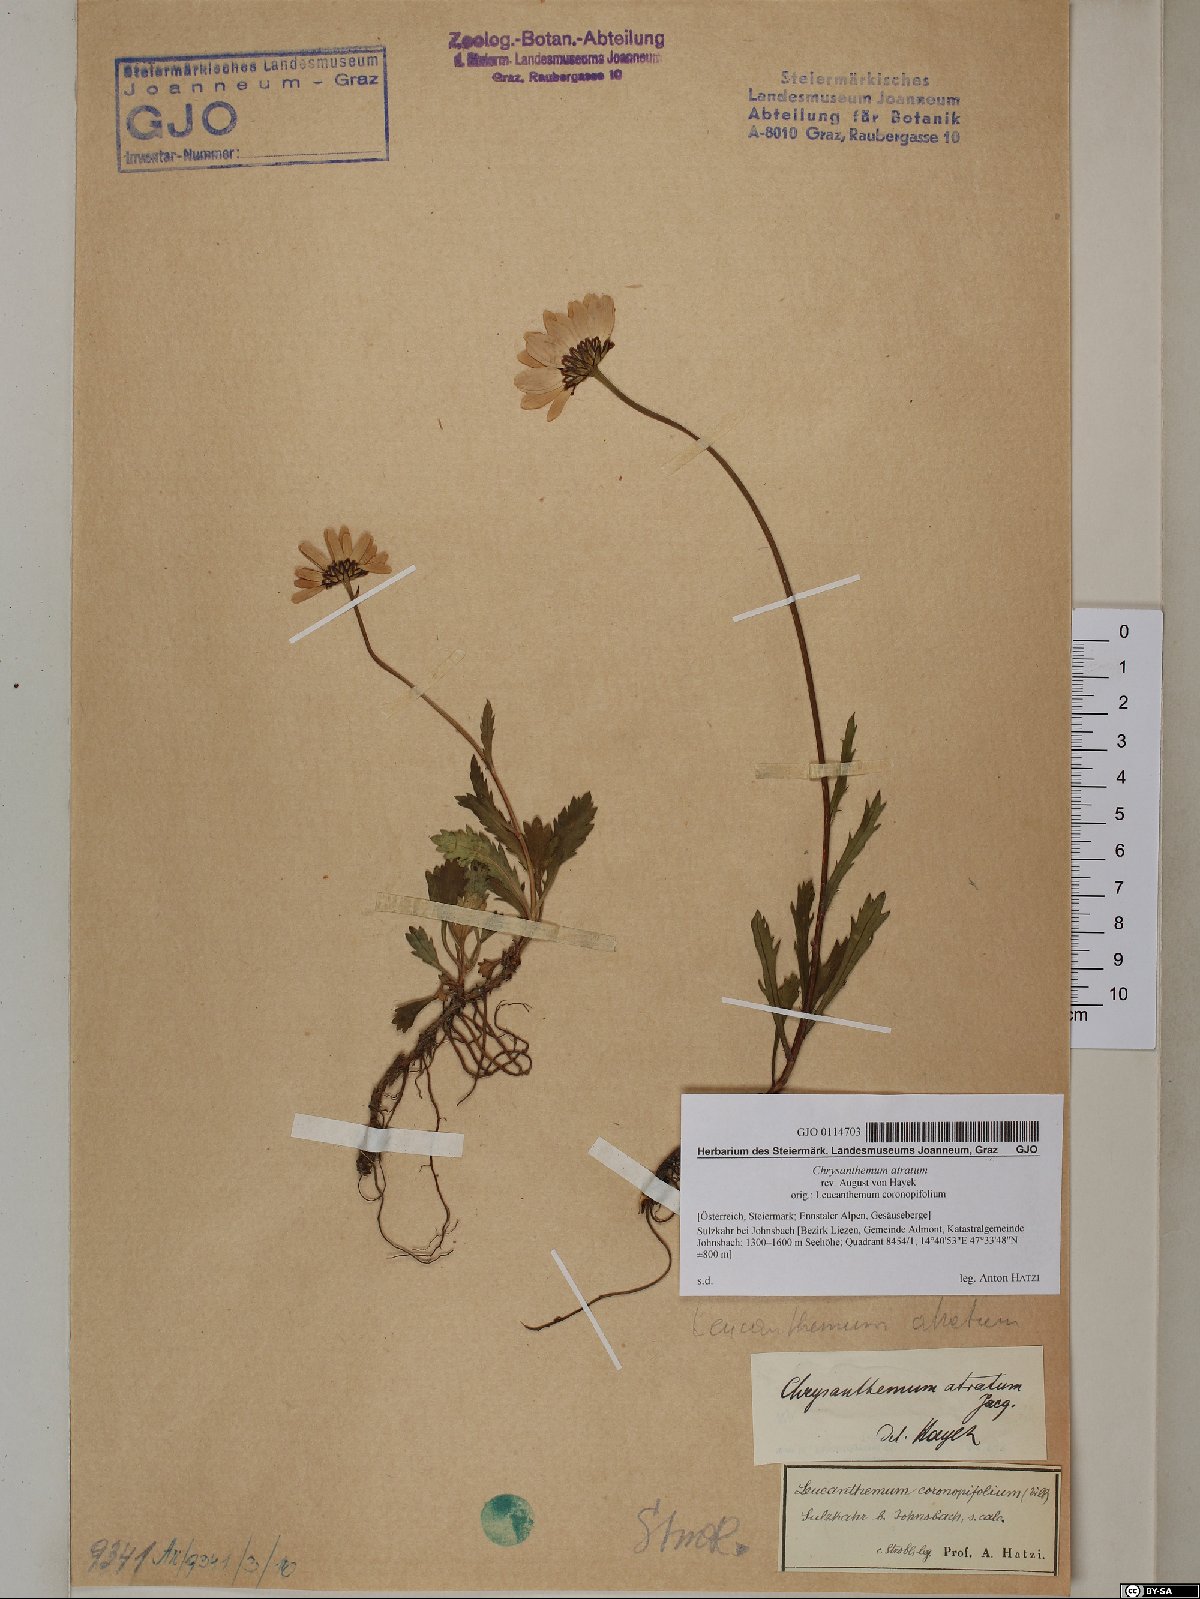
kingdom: Plantae
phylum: Tracheophyta
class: Magnoliopsida
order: Asterales
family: Asteraceae
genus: Leucanthemum
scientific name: Leucanthemum atratum
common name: Saw-leaved moon-daisy
